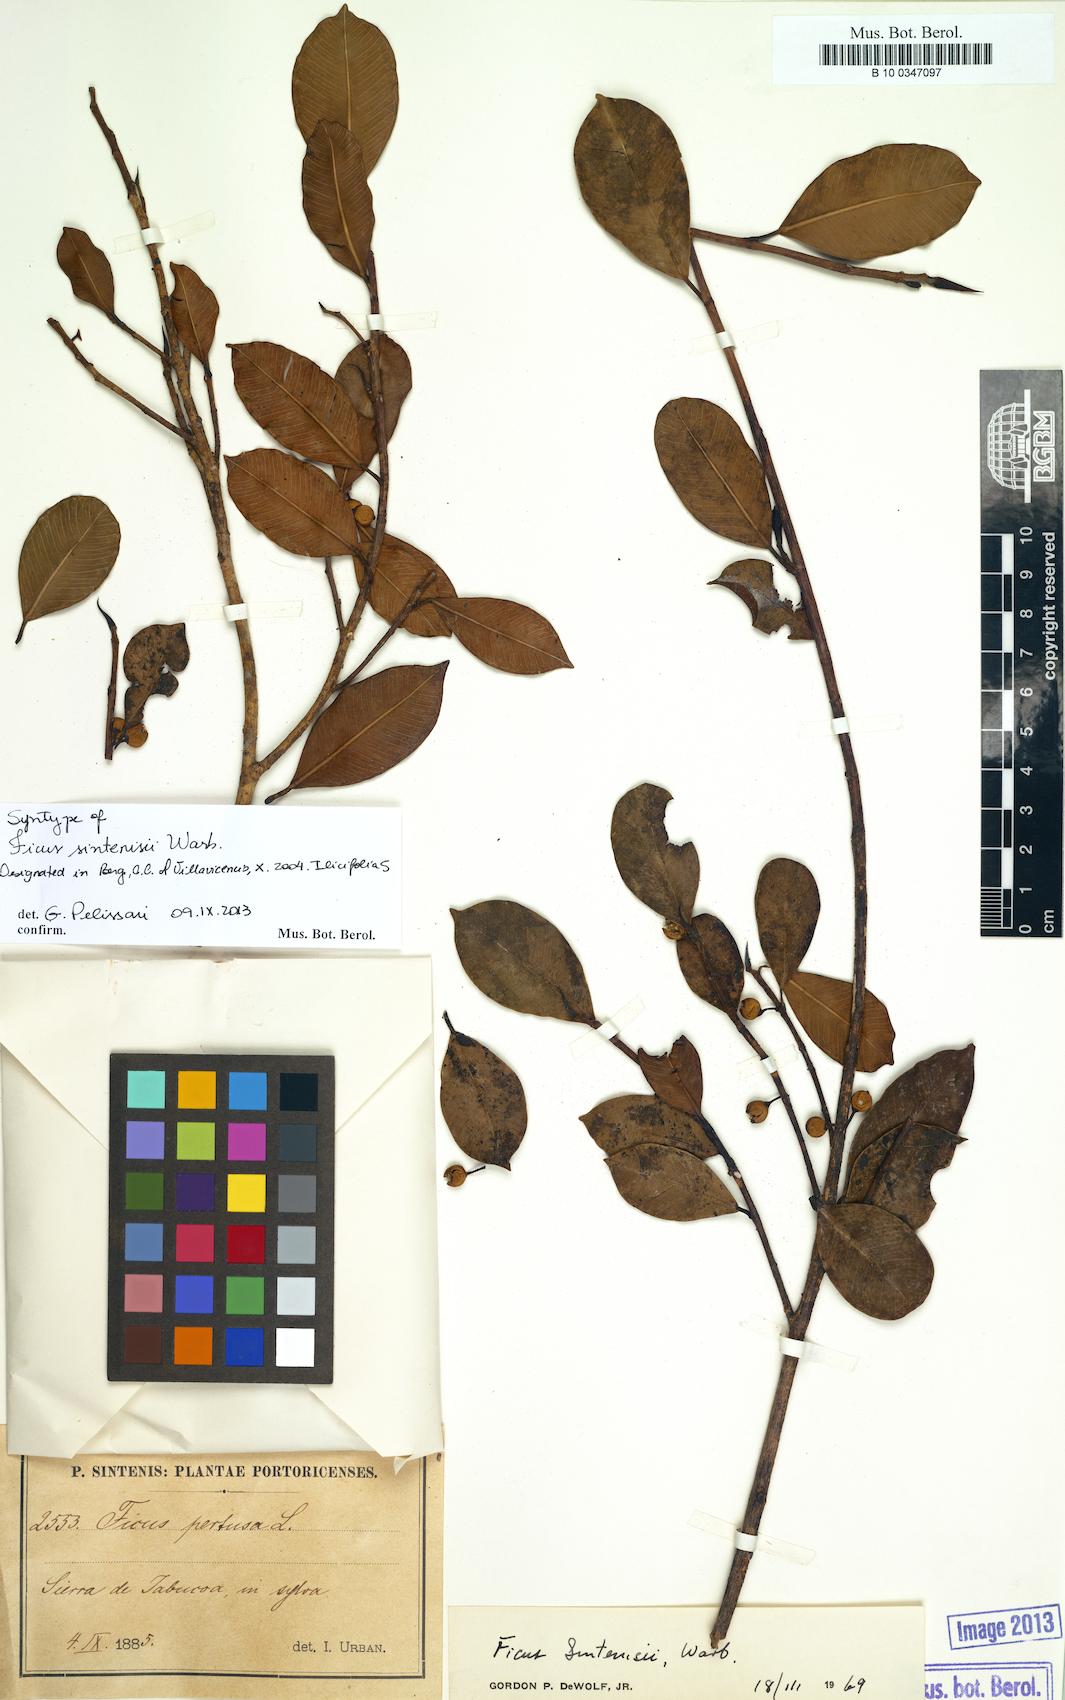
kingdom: Plantae
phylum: Tracheophyta
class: Magnoliopsida
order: Rosales
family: Moraceae
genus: Ficus
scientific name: Ficus americana
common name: Jamaican cherry fig
